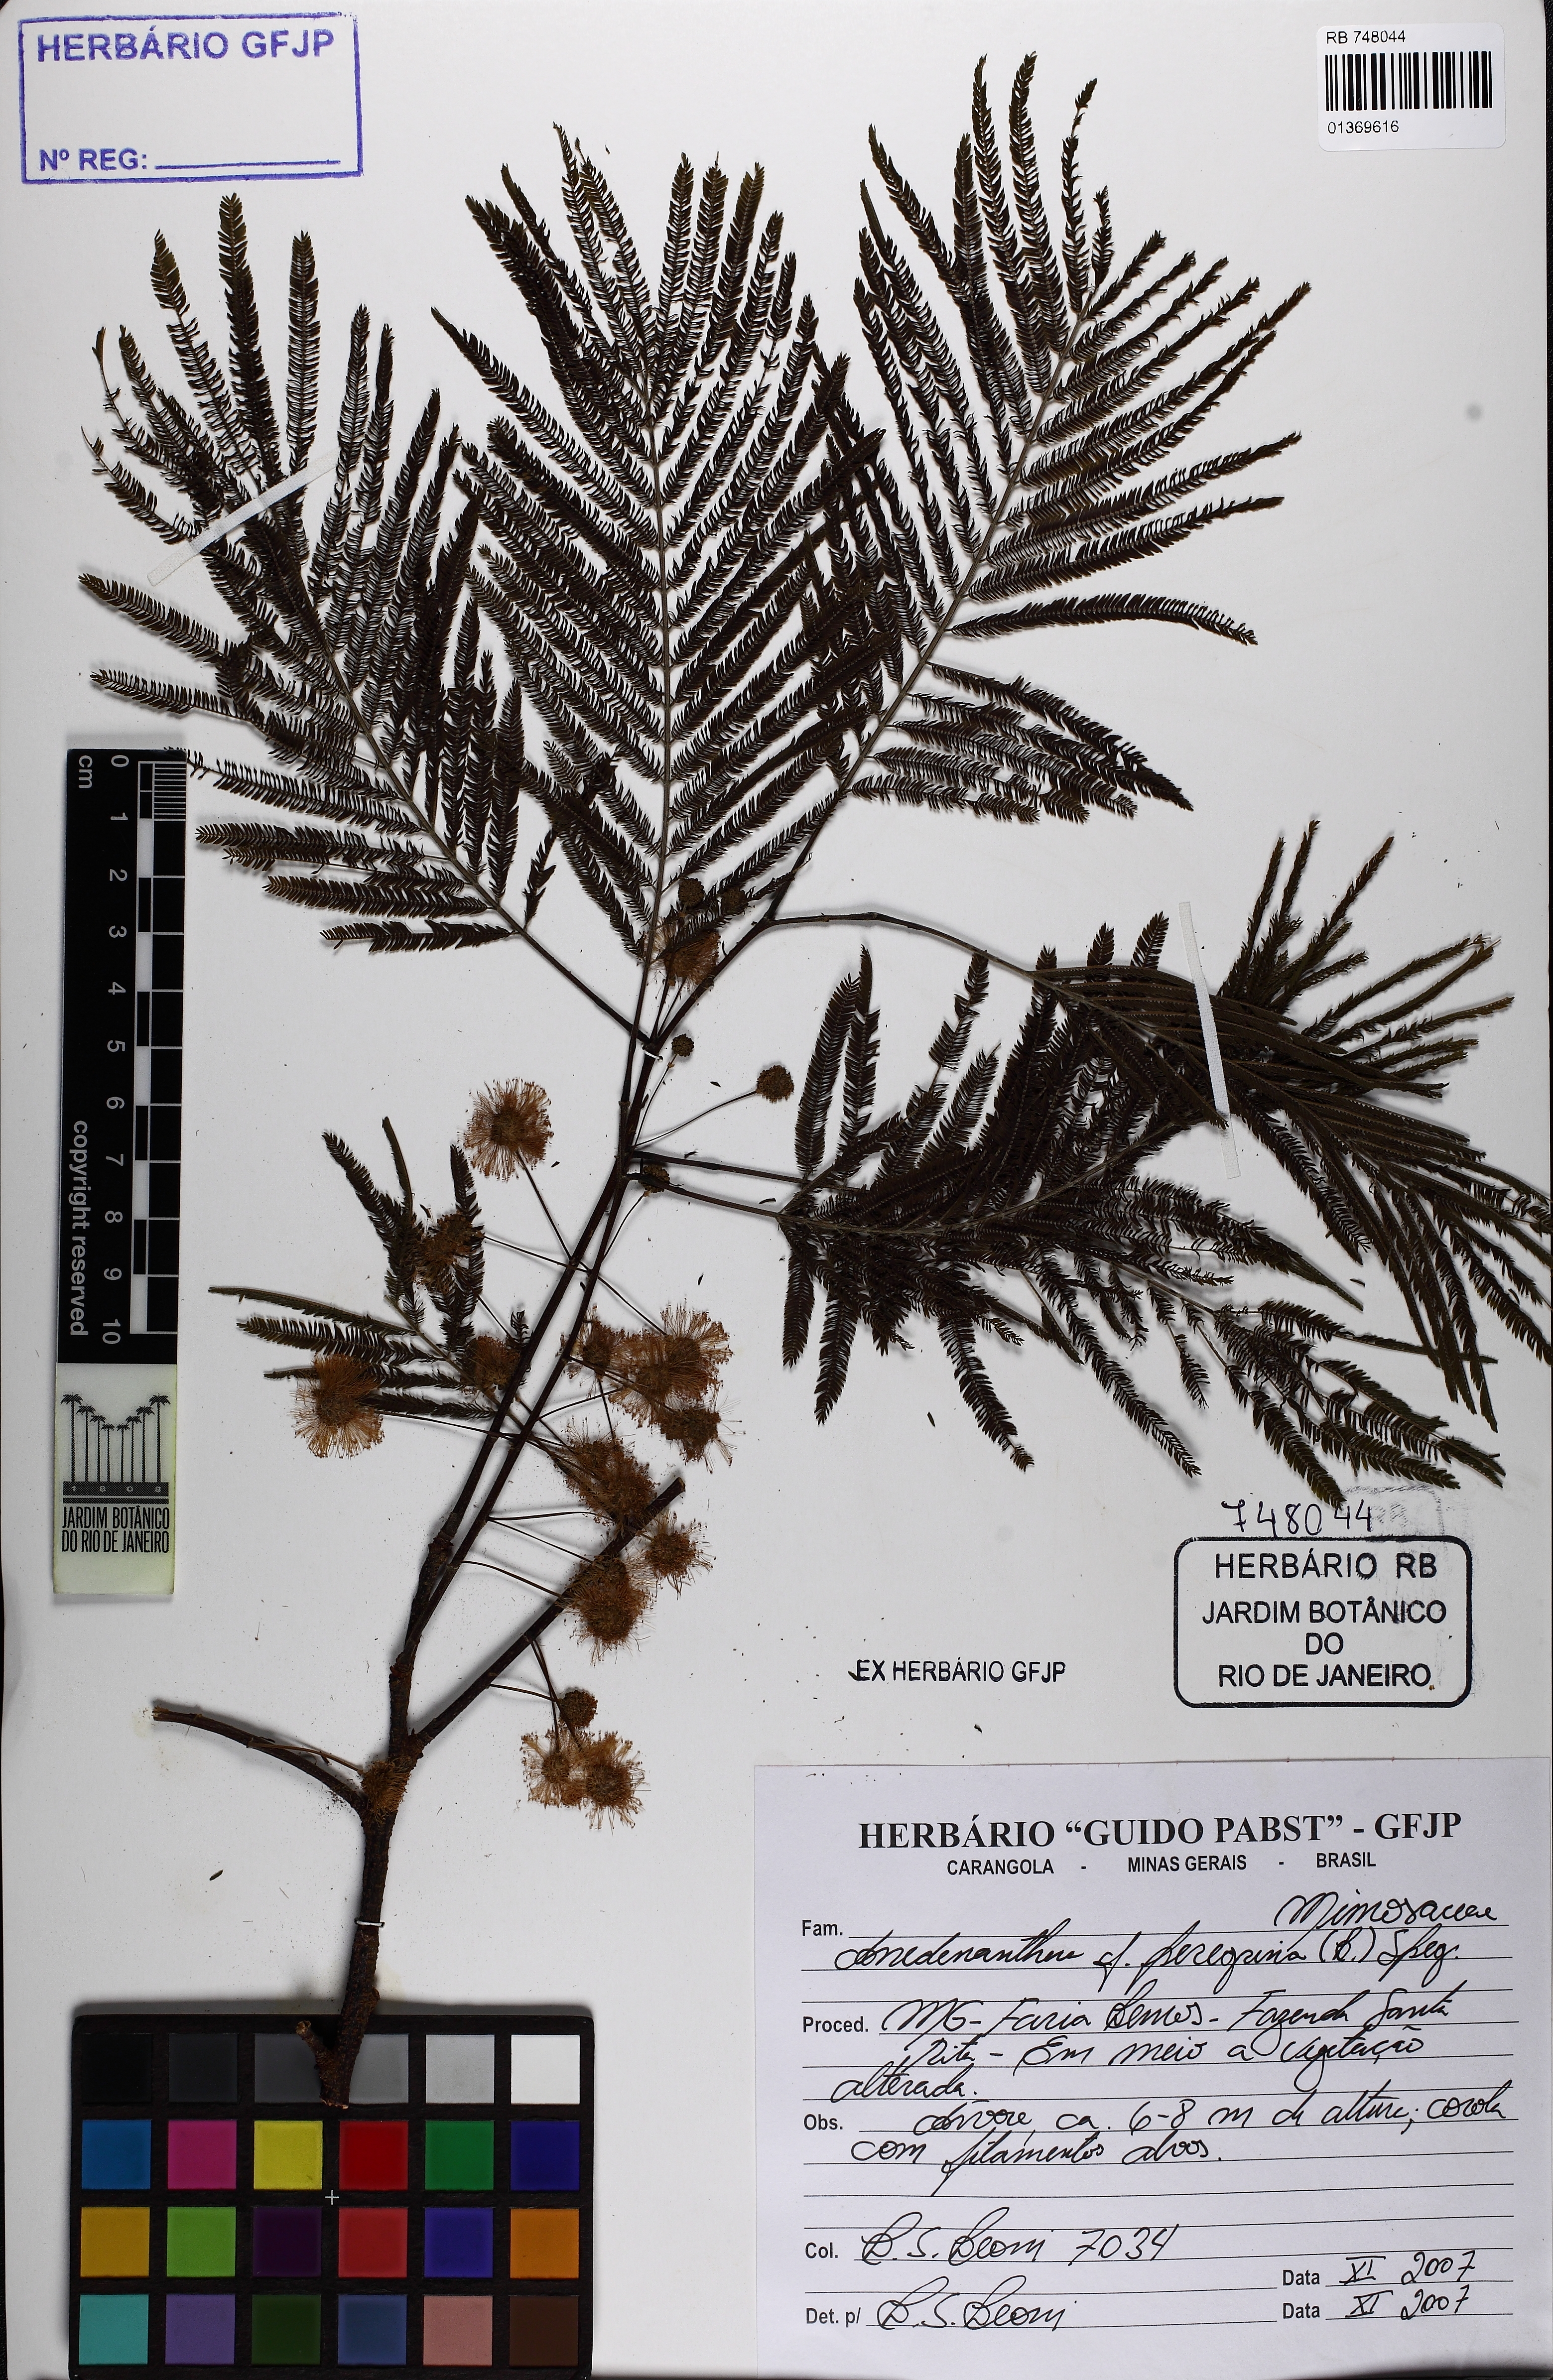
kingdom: Plantae
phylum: Tracheophyta
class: Magnoliopsida
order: Fabales
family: Fabaceae
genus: Anadenanthera
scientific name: Anadenanthera peregrina
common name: Cohoba
